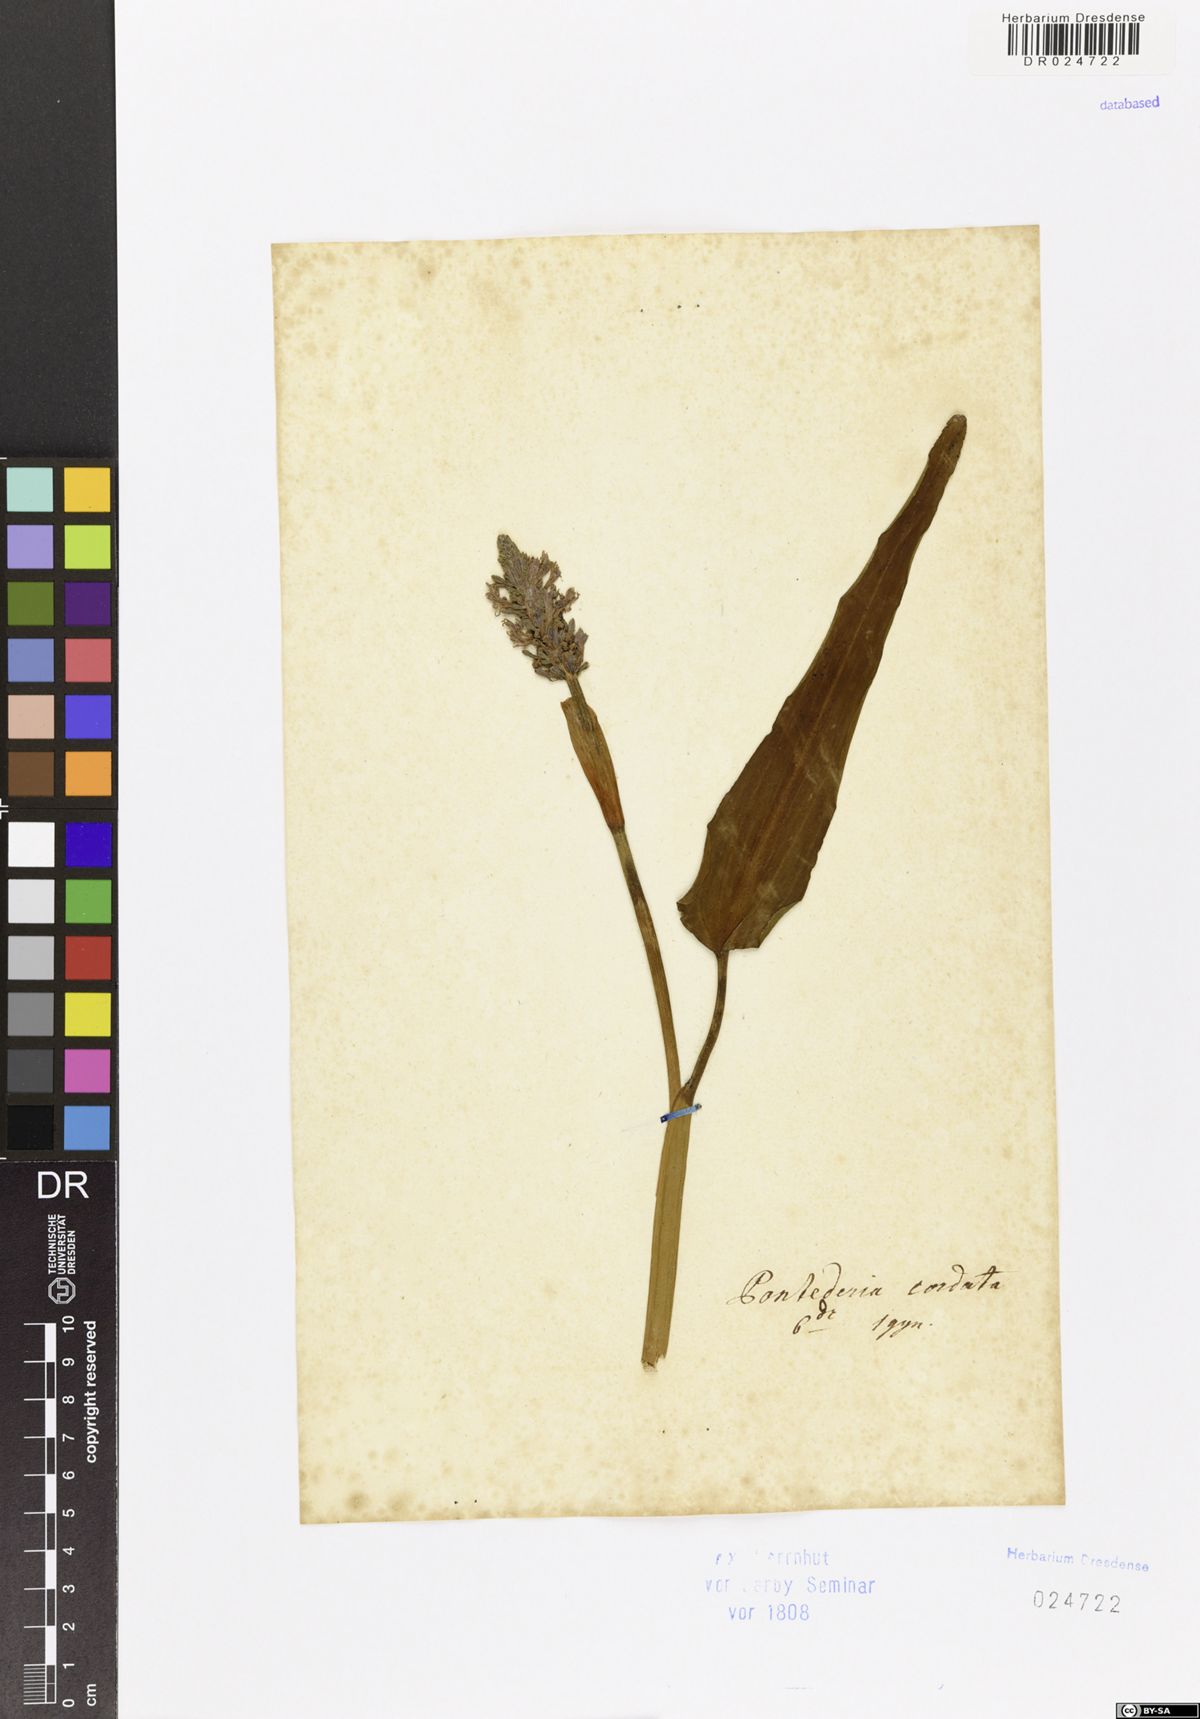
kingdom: Plantae
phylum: Tracheophyta
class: Liliopsida
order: Commelinales
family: Pontederiaceae
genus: Pontederia
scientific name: Pontederia cordata
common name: Pickerelweed
